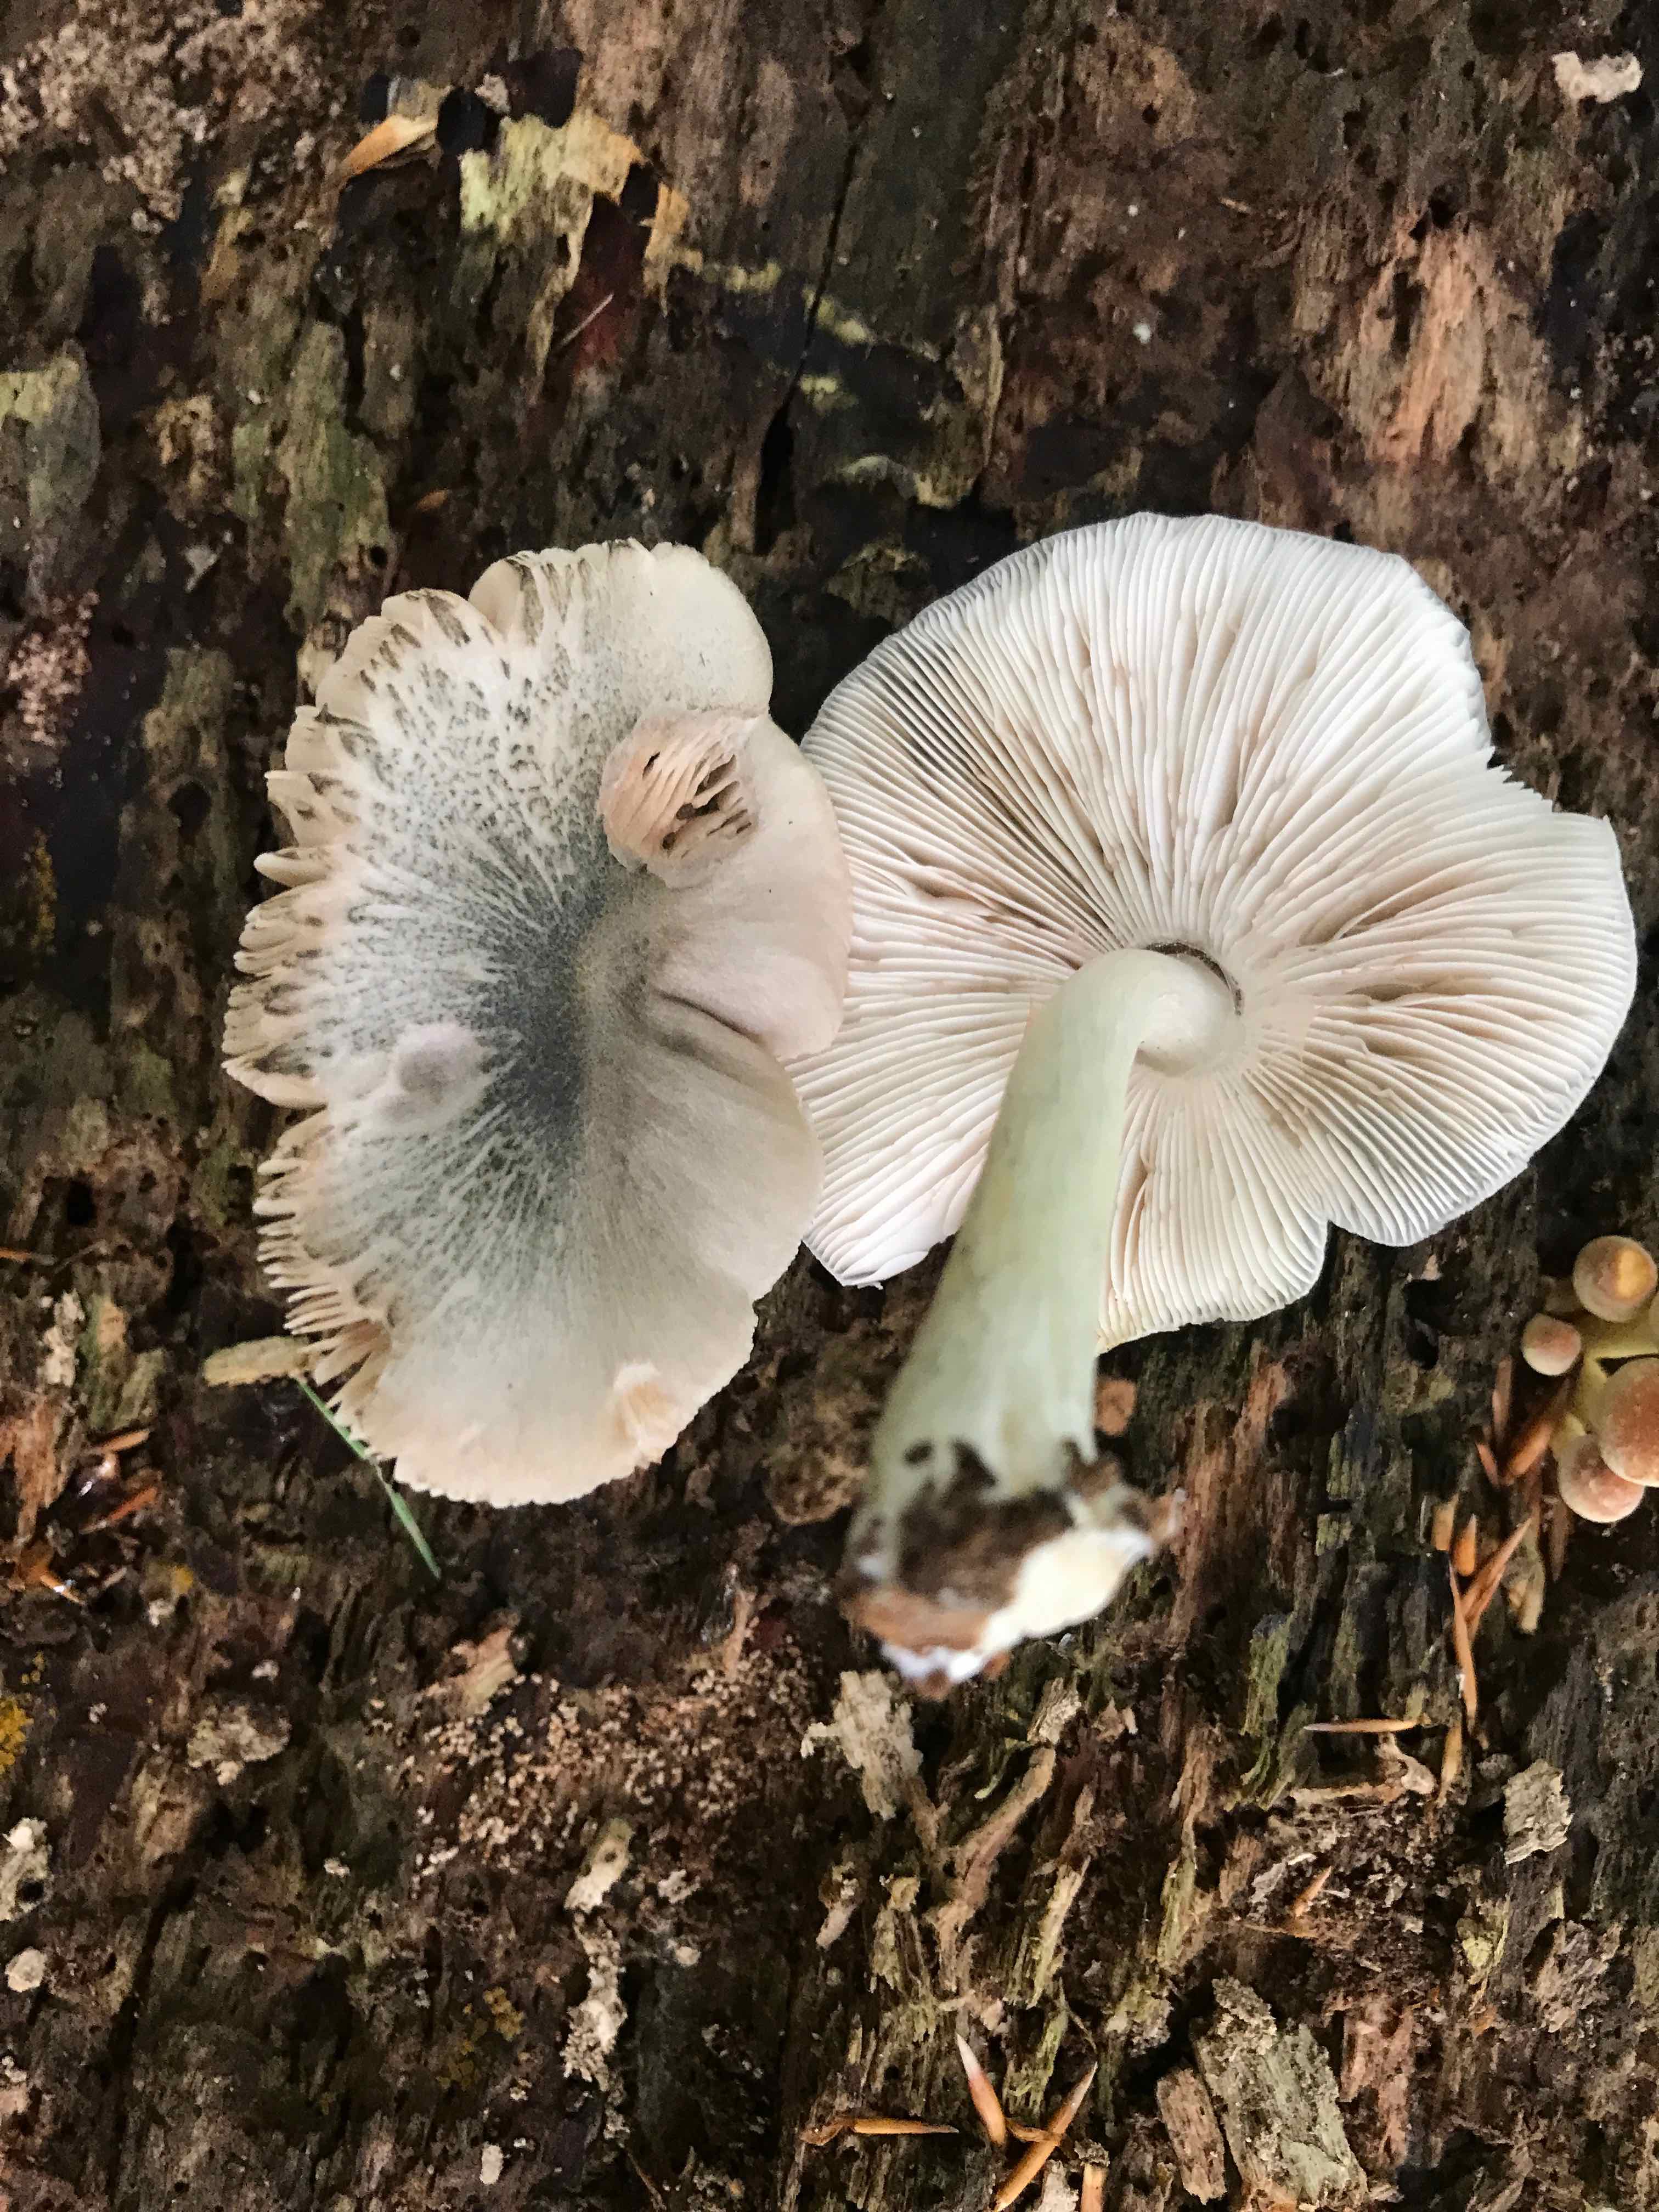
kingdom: Fungi
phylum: Basidiomycota
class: Agaricomycetes
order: Agaricales
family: Pluteaceae
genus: Pluteus
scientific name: Pluteus salicinus
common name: stiv skærmhat
